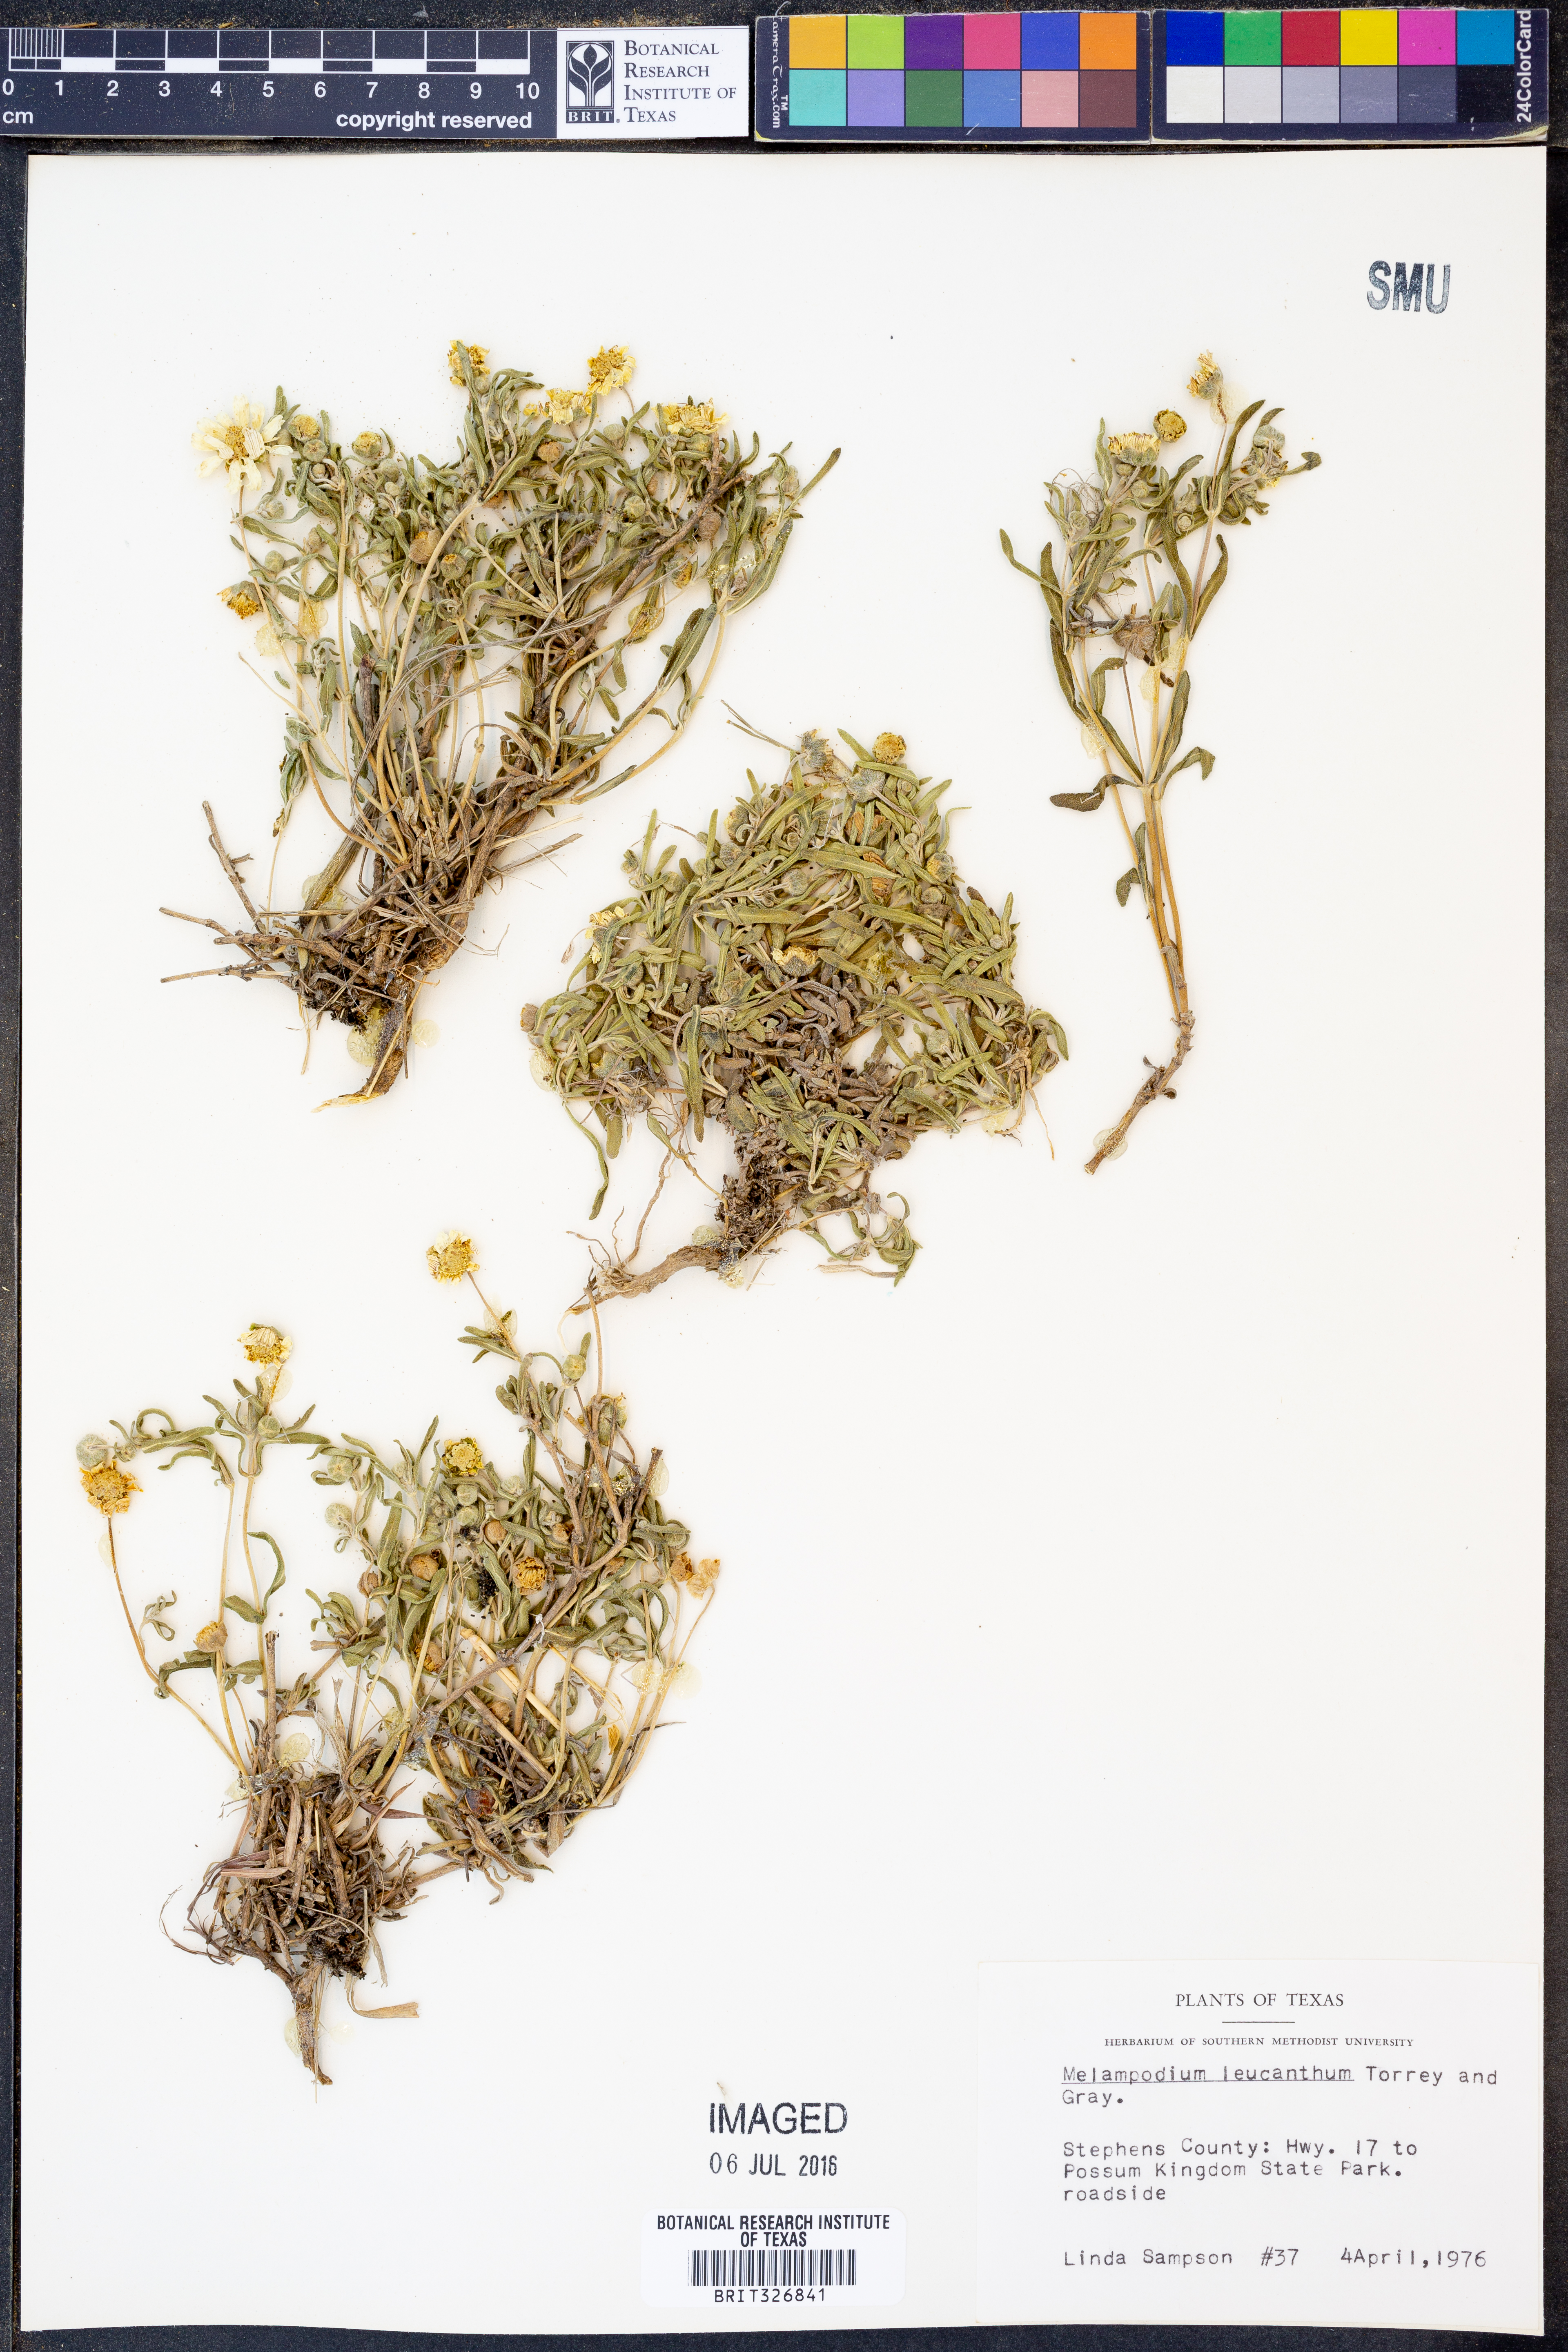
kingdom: Plantae
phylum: Tracheophyta
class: Magnoliopsida
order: Asterales
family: Asteraceae
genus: Melampodium
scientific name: Melampodium leucanthum
